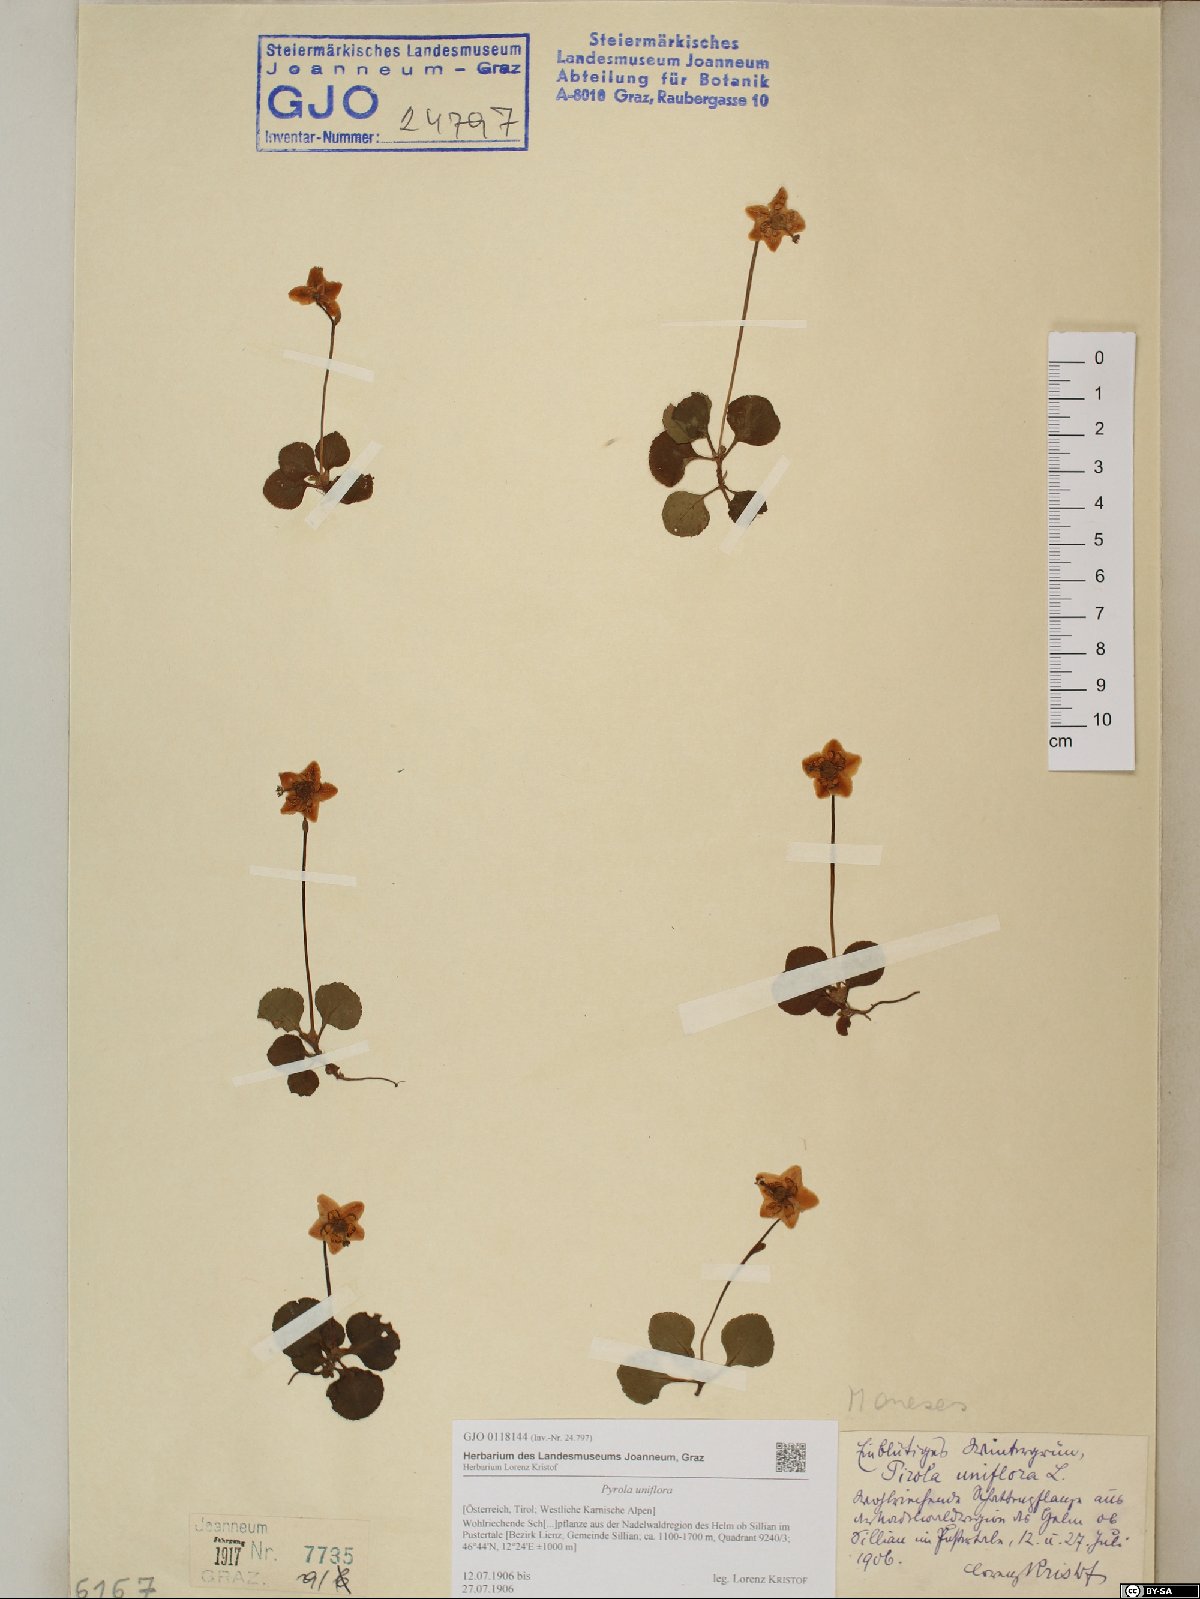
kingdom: Plantae
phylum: Tracheophyta
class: Magnoliopsida
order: Ericales
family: Ericaceae
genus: Moneses
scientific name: Moneses uniflora
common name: One-flowered wintergreen
